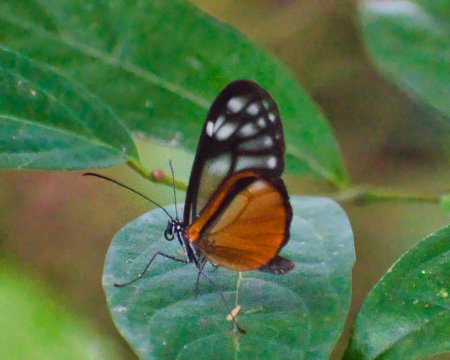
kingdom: Animalia
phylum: Arthropoda
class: Insecta
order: Lepidoptera
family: Nymphalidae
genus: Hypoleria
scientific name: Hypoleria lavinia
